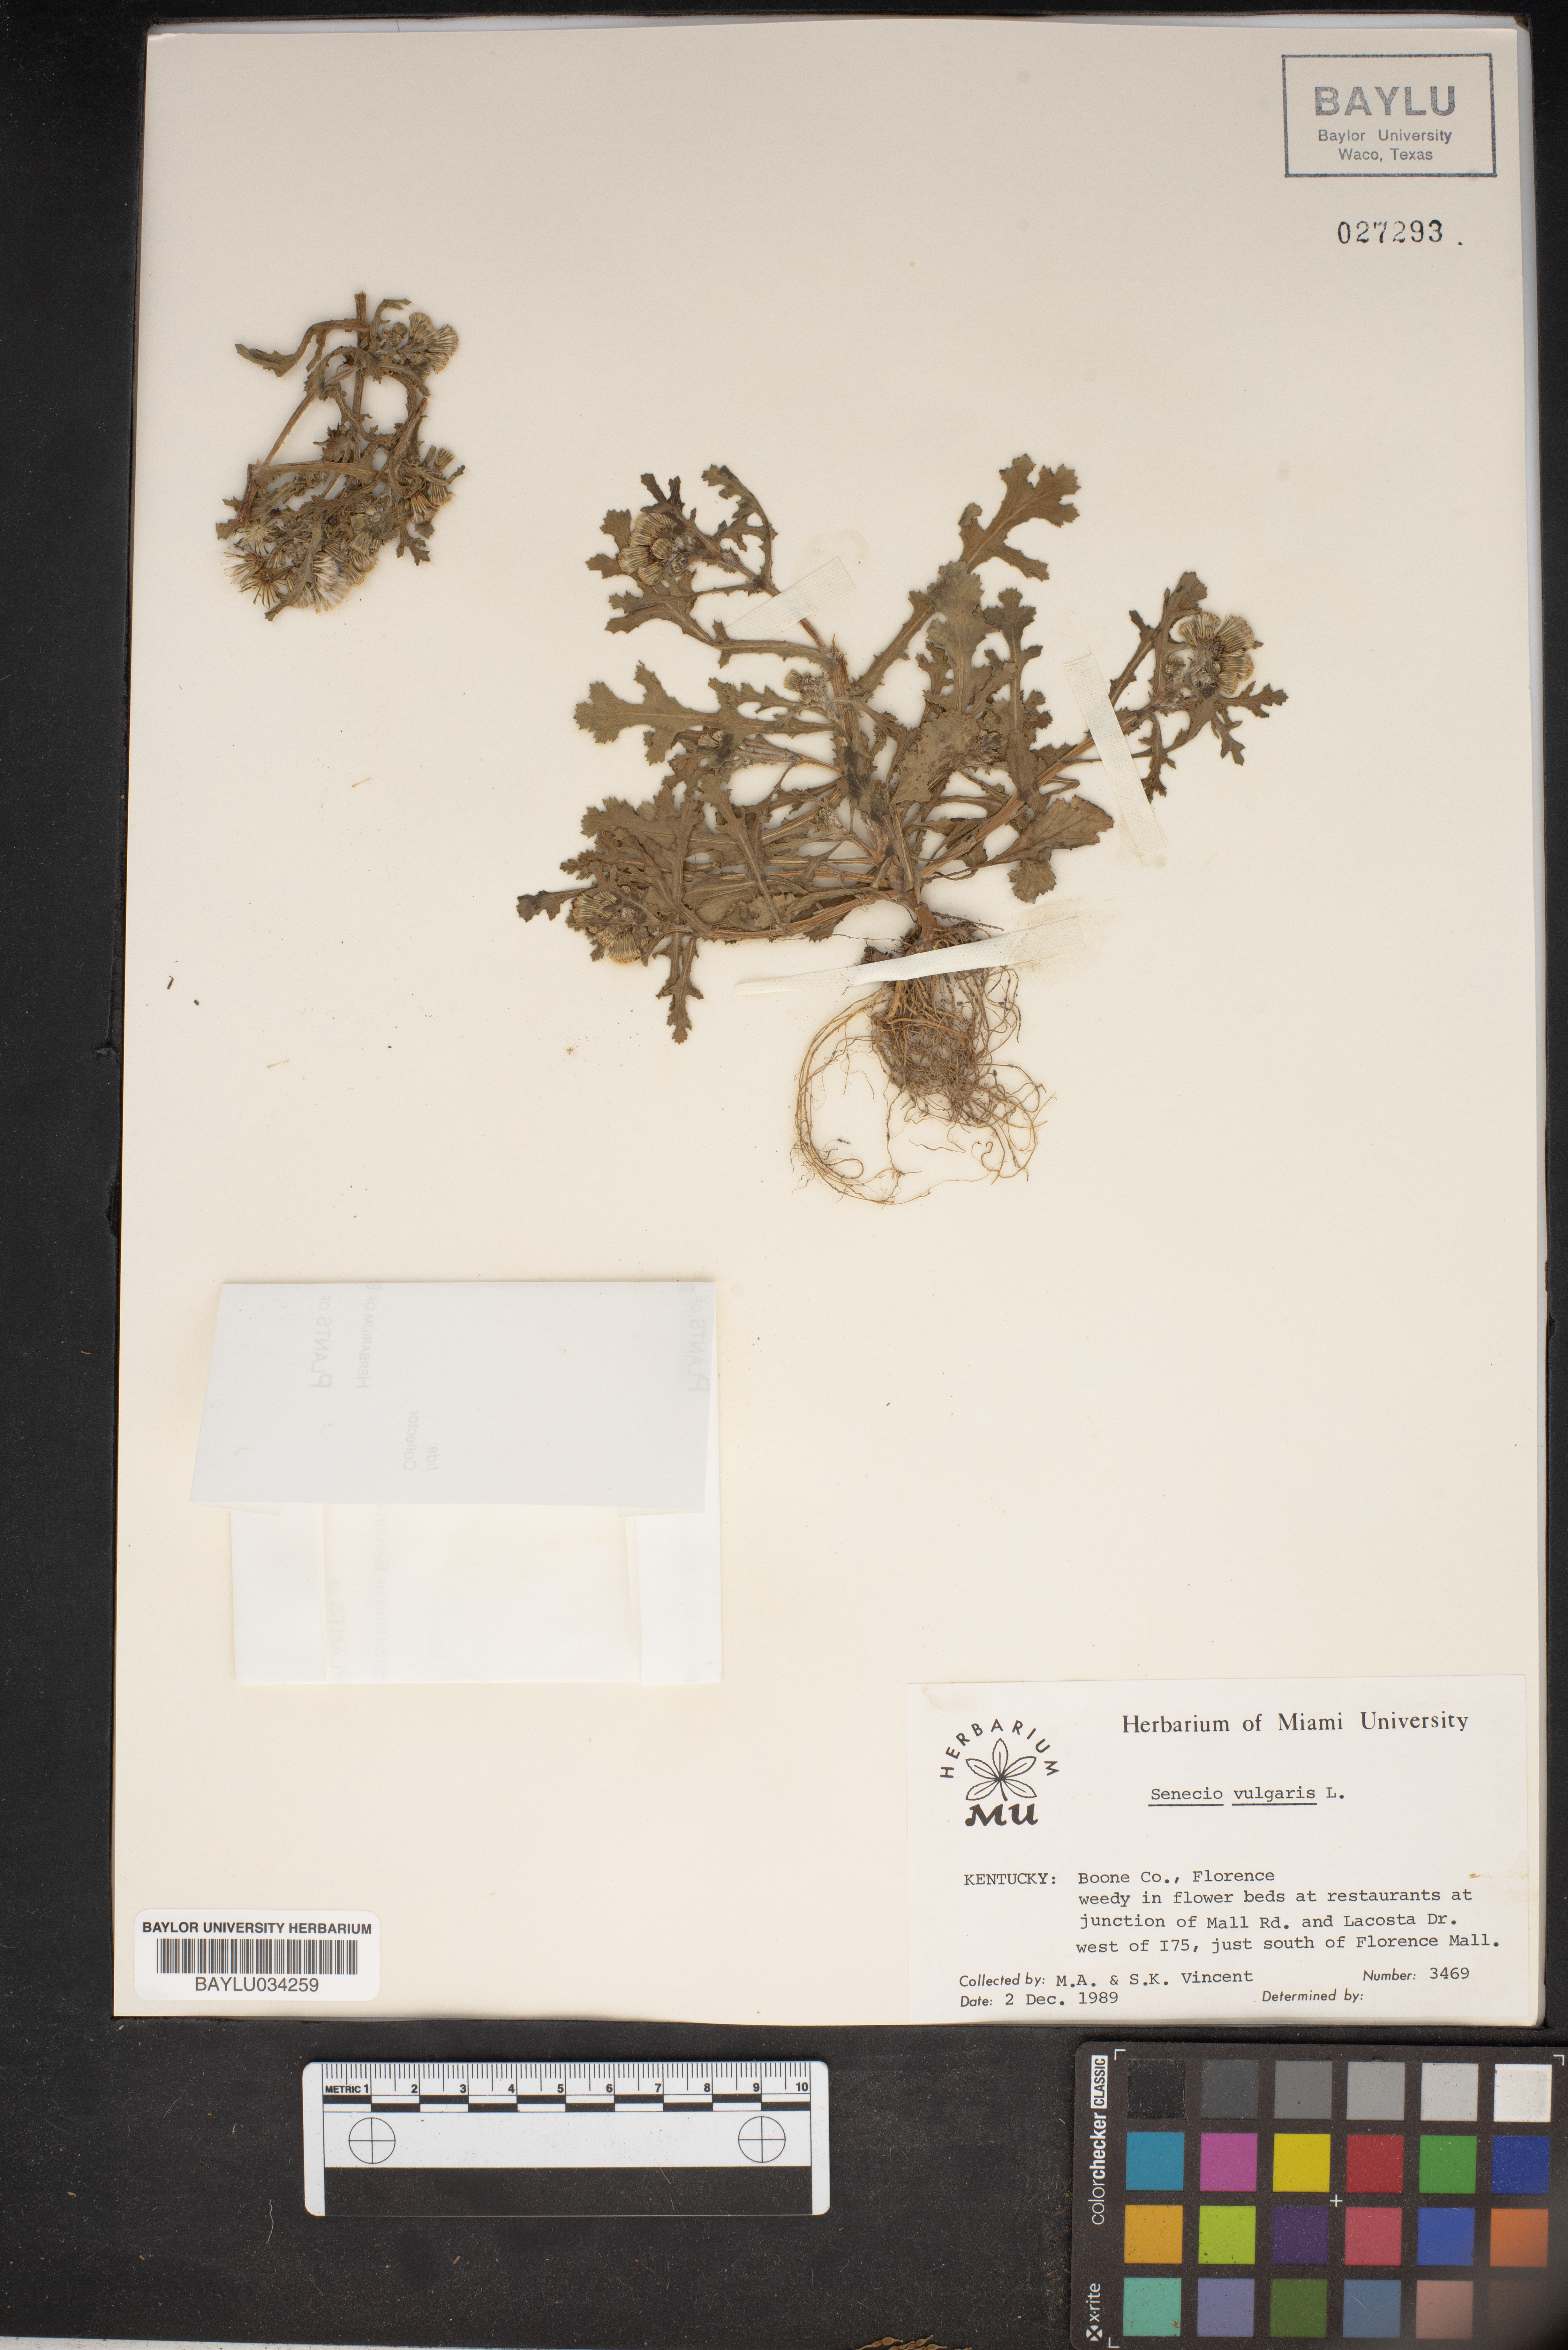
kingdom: Plantae
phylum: Tracheophyta
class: Magnoliopsida
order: Asterales
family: Asteraceae
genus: Senecio
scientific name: Senecio vulgaris
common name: Old-man-in-the-spring
